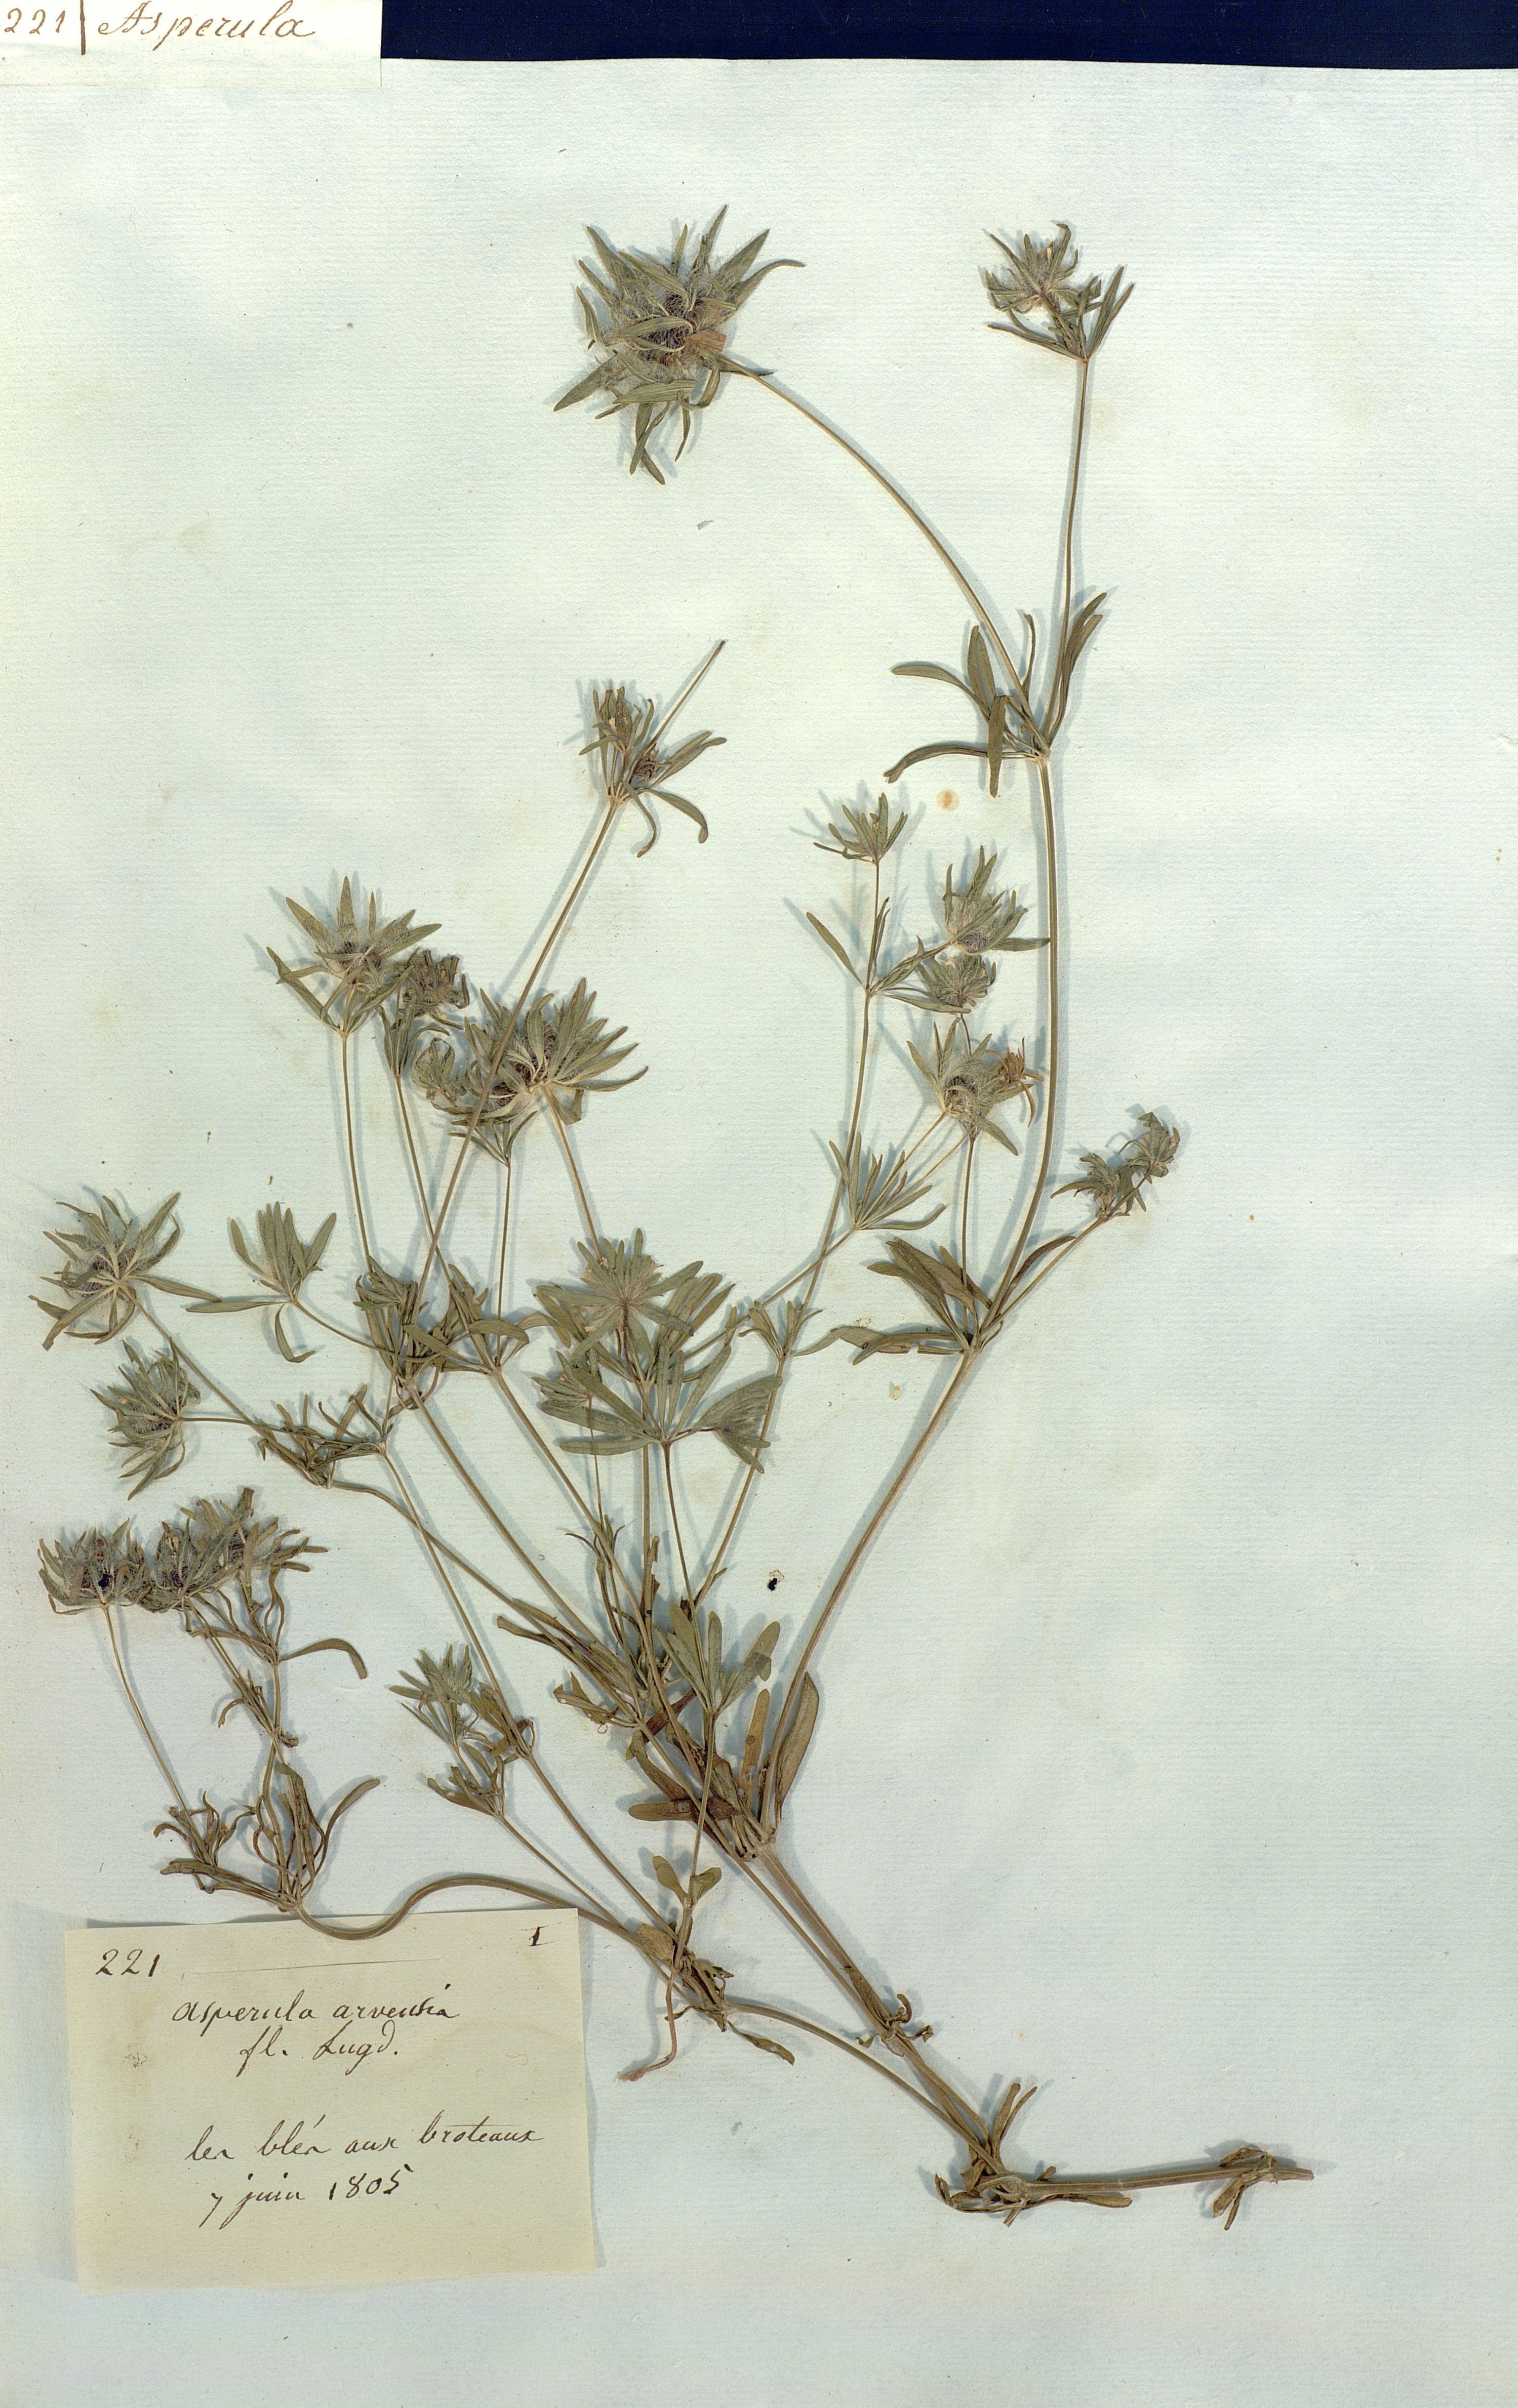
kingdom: Plantae
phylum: Tracheophyta
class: Magnoliopsida
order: Gentianales
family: Rubiaceae
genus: Asperula
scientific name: Asperula arvensis
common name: Blue woodruff
